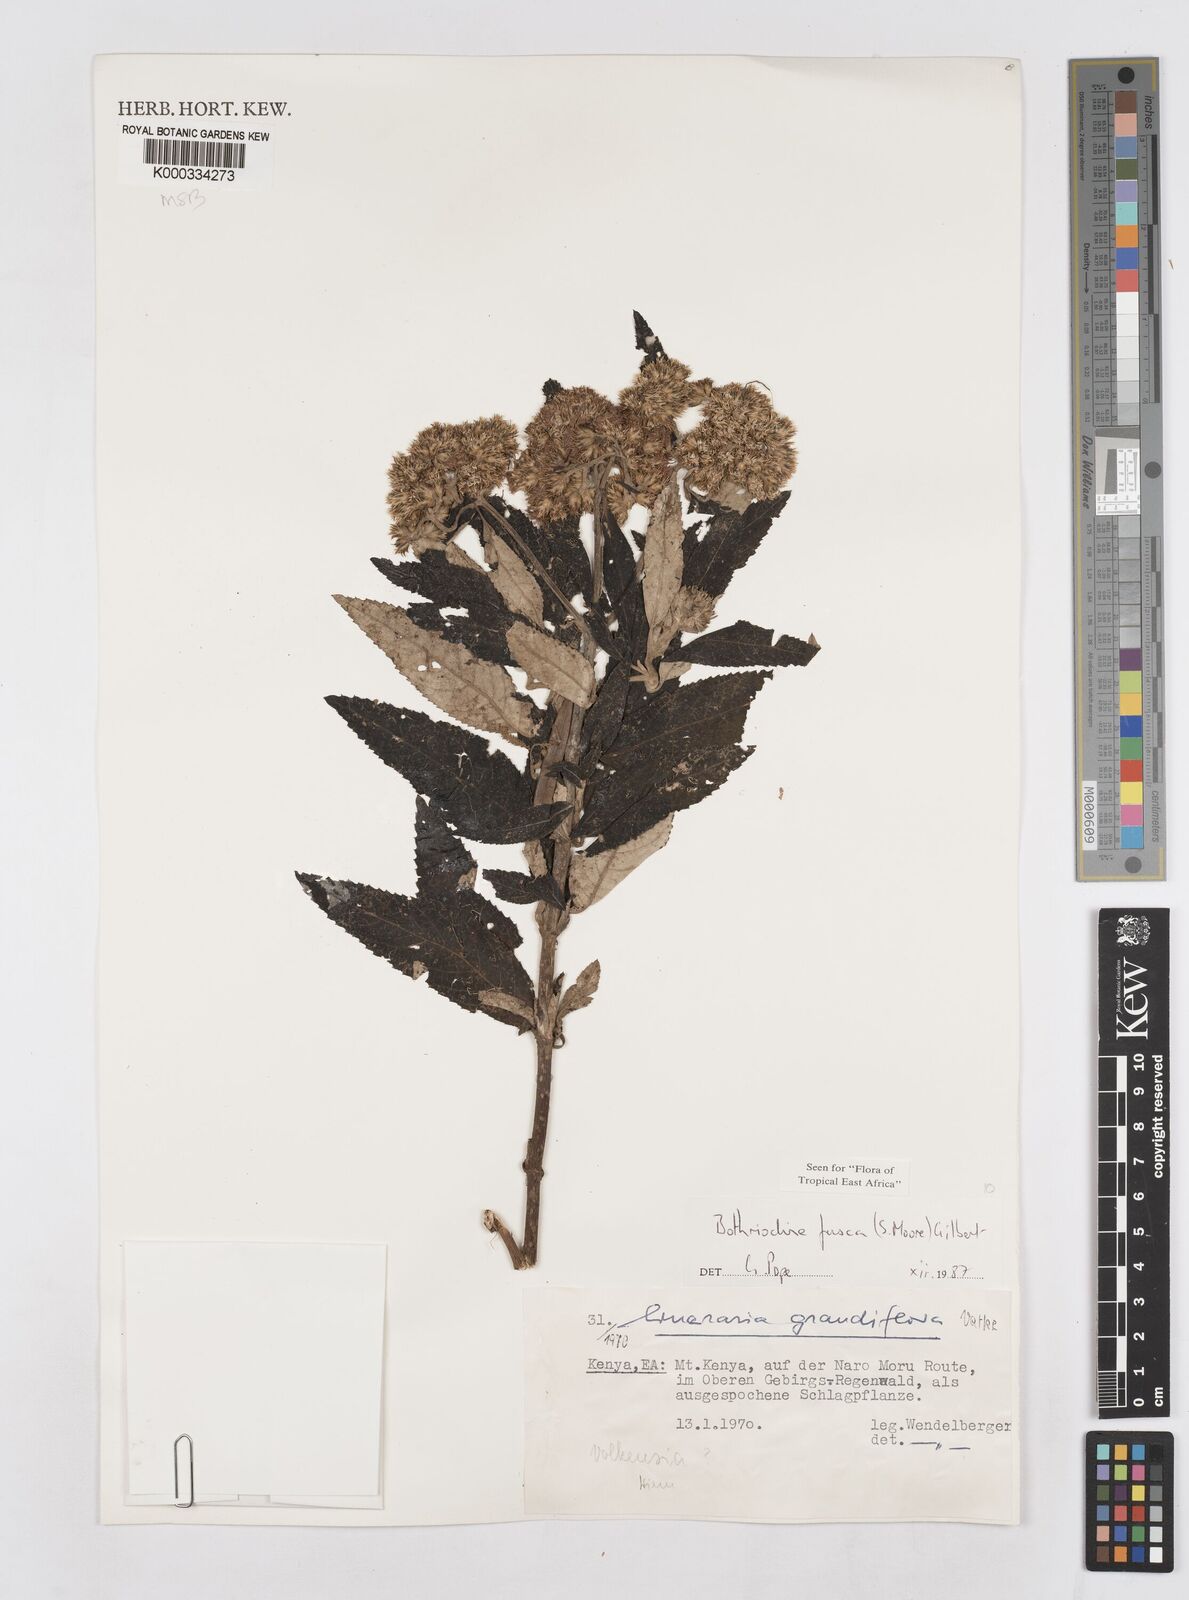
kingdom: Plantae
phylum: Tracheophyta
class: Magnoliopsida
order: Asterales
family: Asteraceae
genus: Bothriocline
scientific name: Bothriocline fusca
